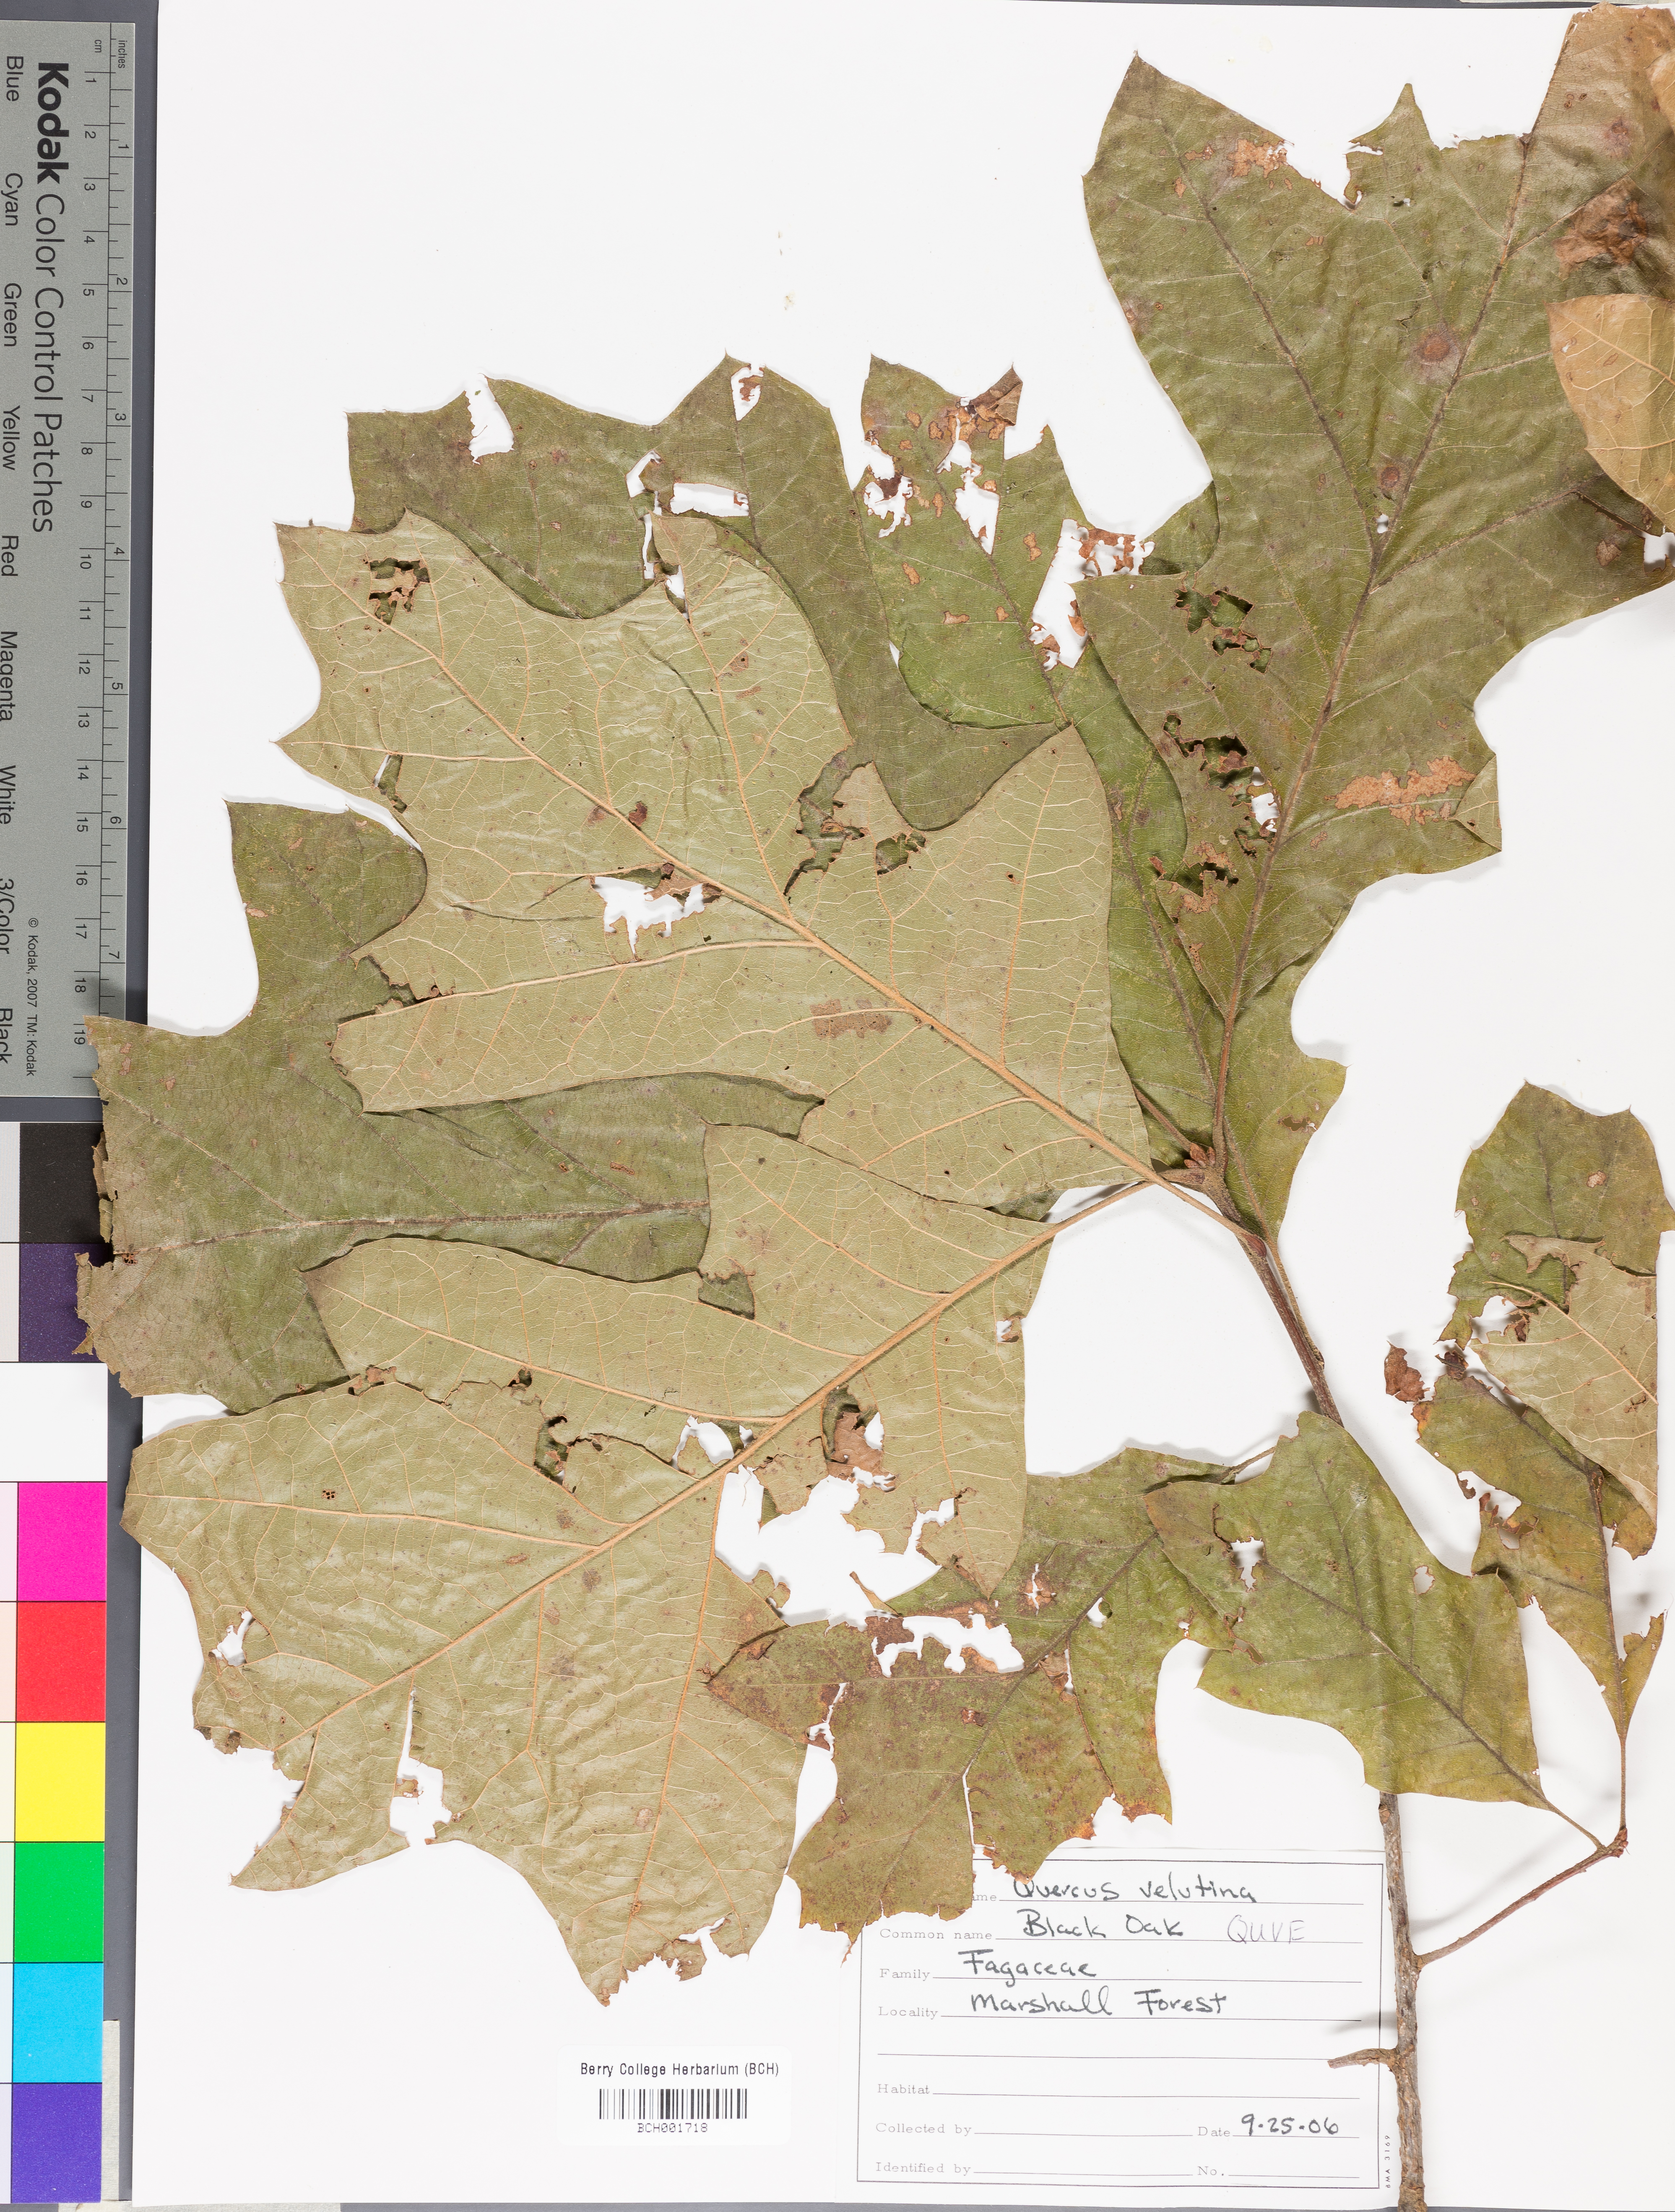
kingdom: Plantae
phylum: Tracheophyta
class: Magnoliopsida
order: Fagales
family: Fagaceae
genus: Quercus
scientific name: Quercus velutina
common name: Black oak
